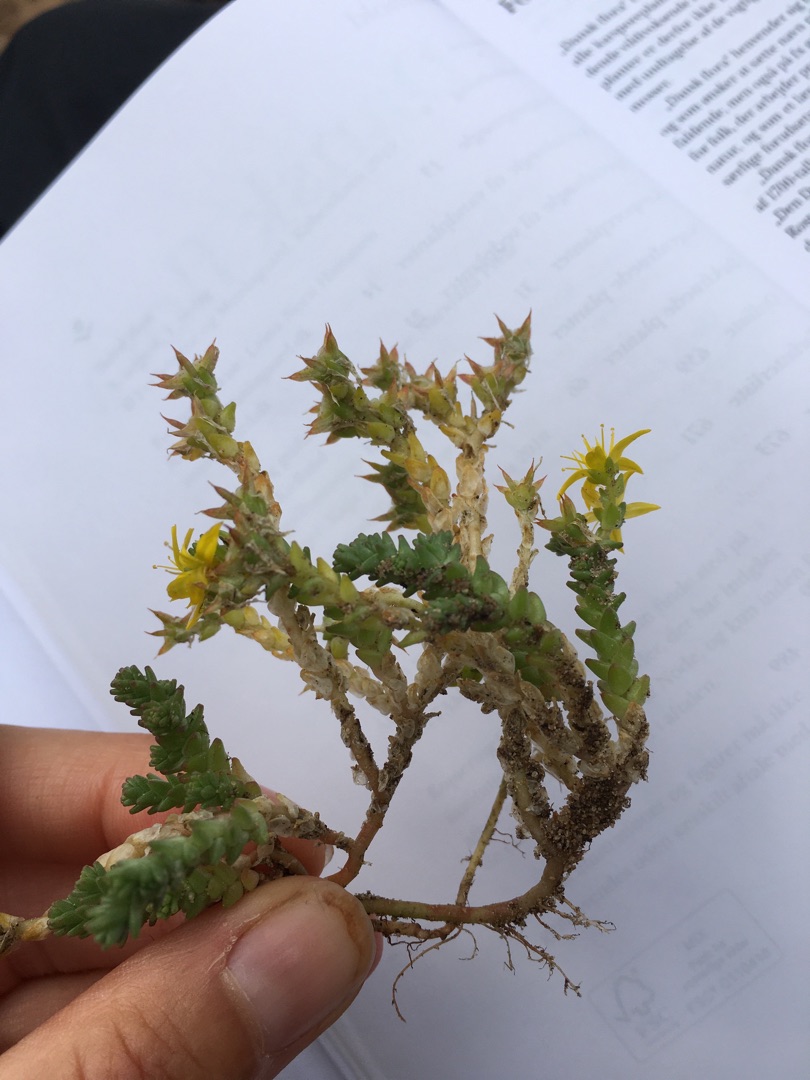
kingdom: Plantae
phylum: Tracheophyta
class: Magnoliopsida
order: Saxifragales
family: Crassulaceae
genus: Sedum
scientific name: Sedum acre
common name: Bidende stenurt
